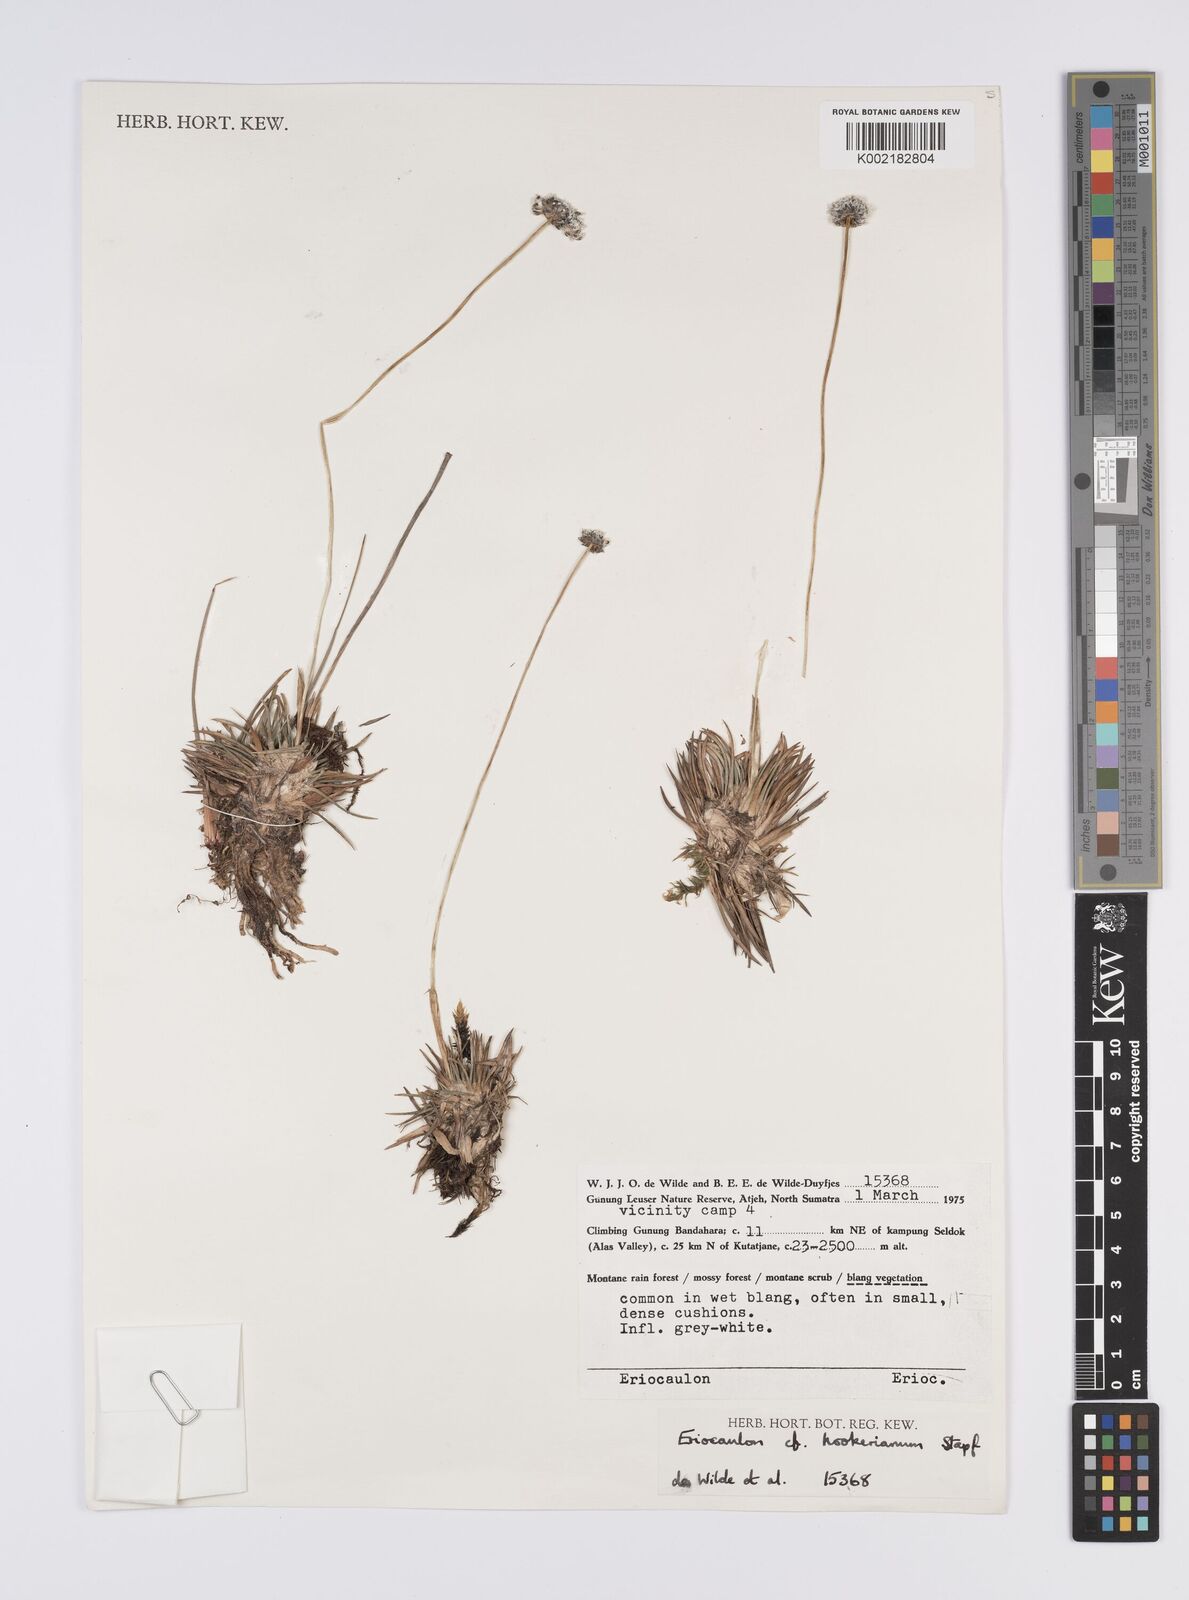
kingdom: Plantae
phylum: Tracheophyta
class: Liliopsida
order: Poales
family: Eriocaulaceae
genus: Eriocaulon
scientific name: Eriocaulon hookerianum
